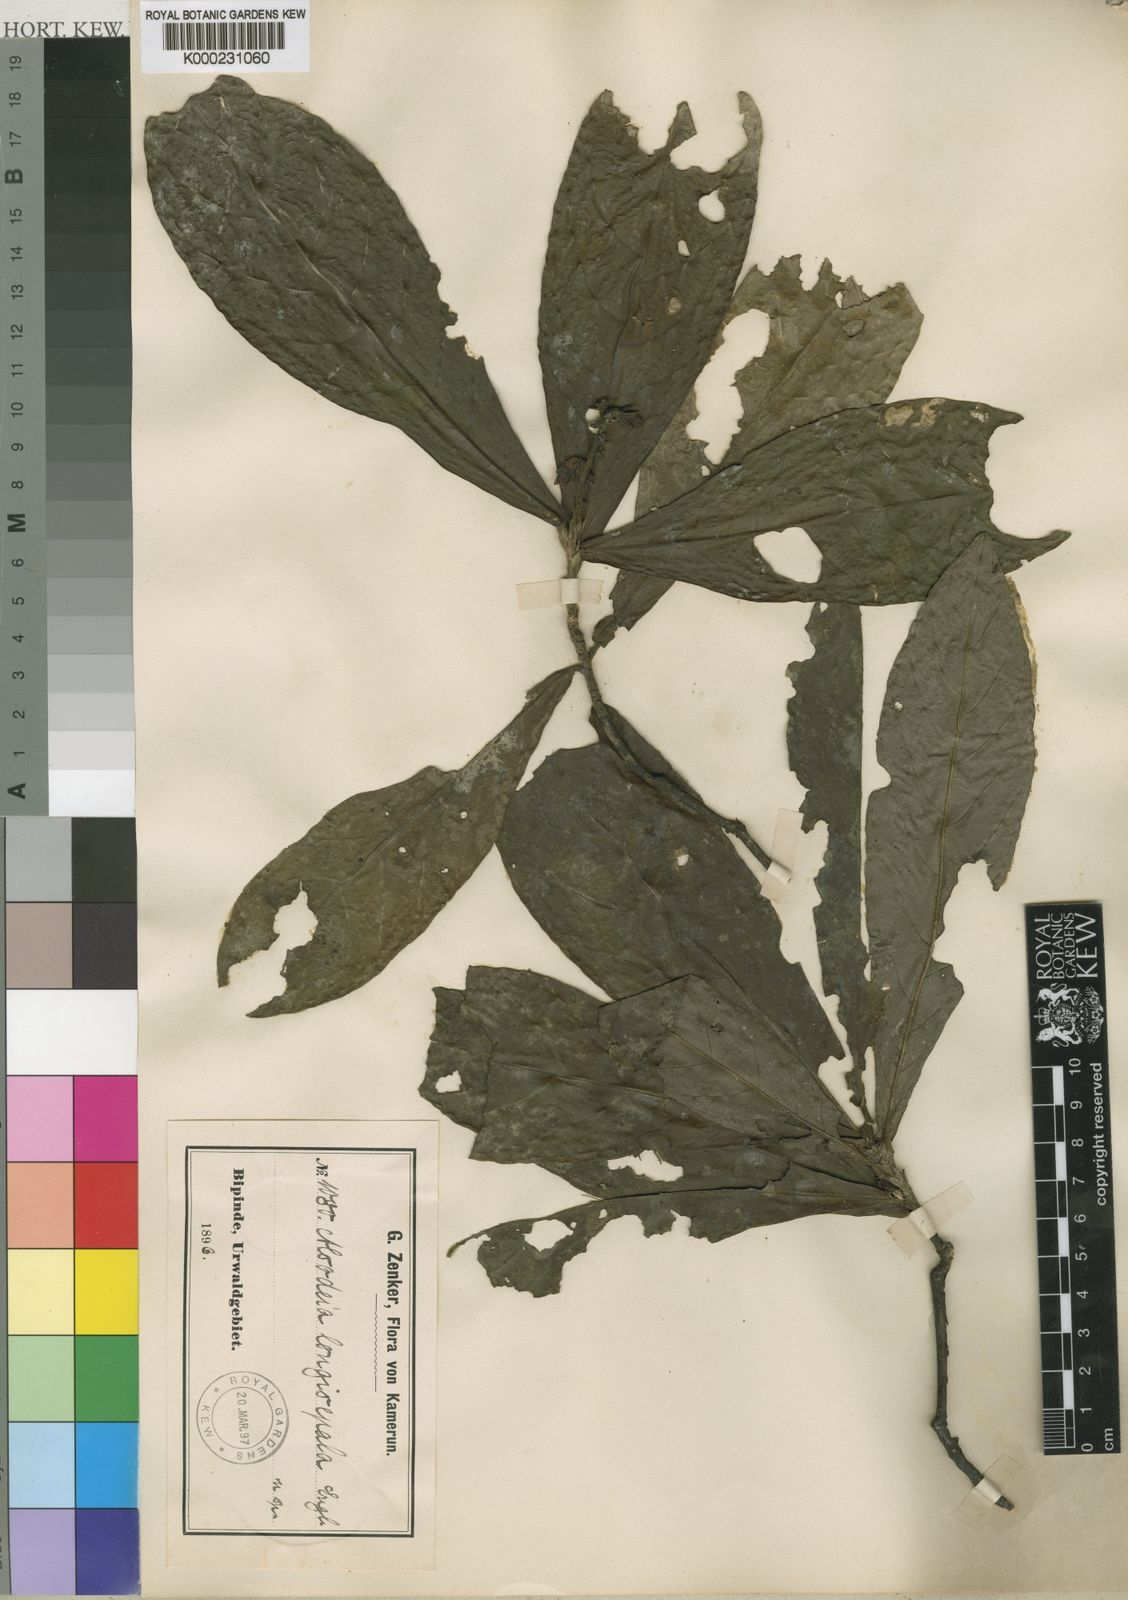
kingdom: Plantae
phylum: Tracheophyta
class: Magnoliopsida
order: Malpighiales
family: Violaceae
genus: Rinorea
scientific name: Rinorea longisepala
